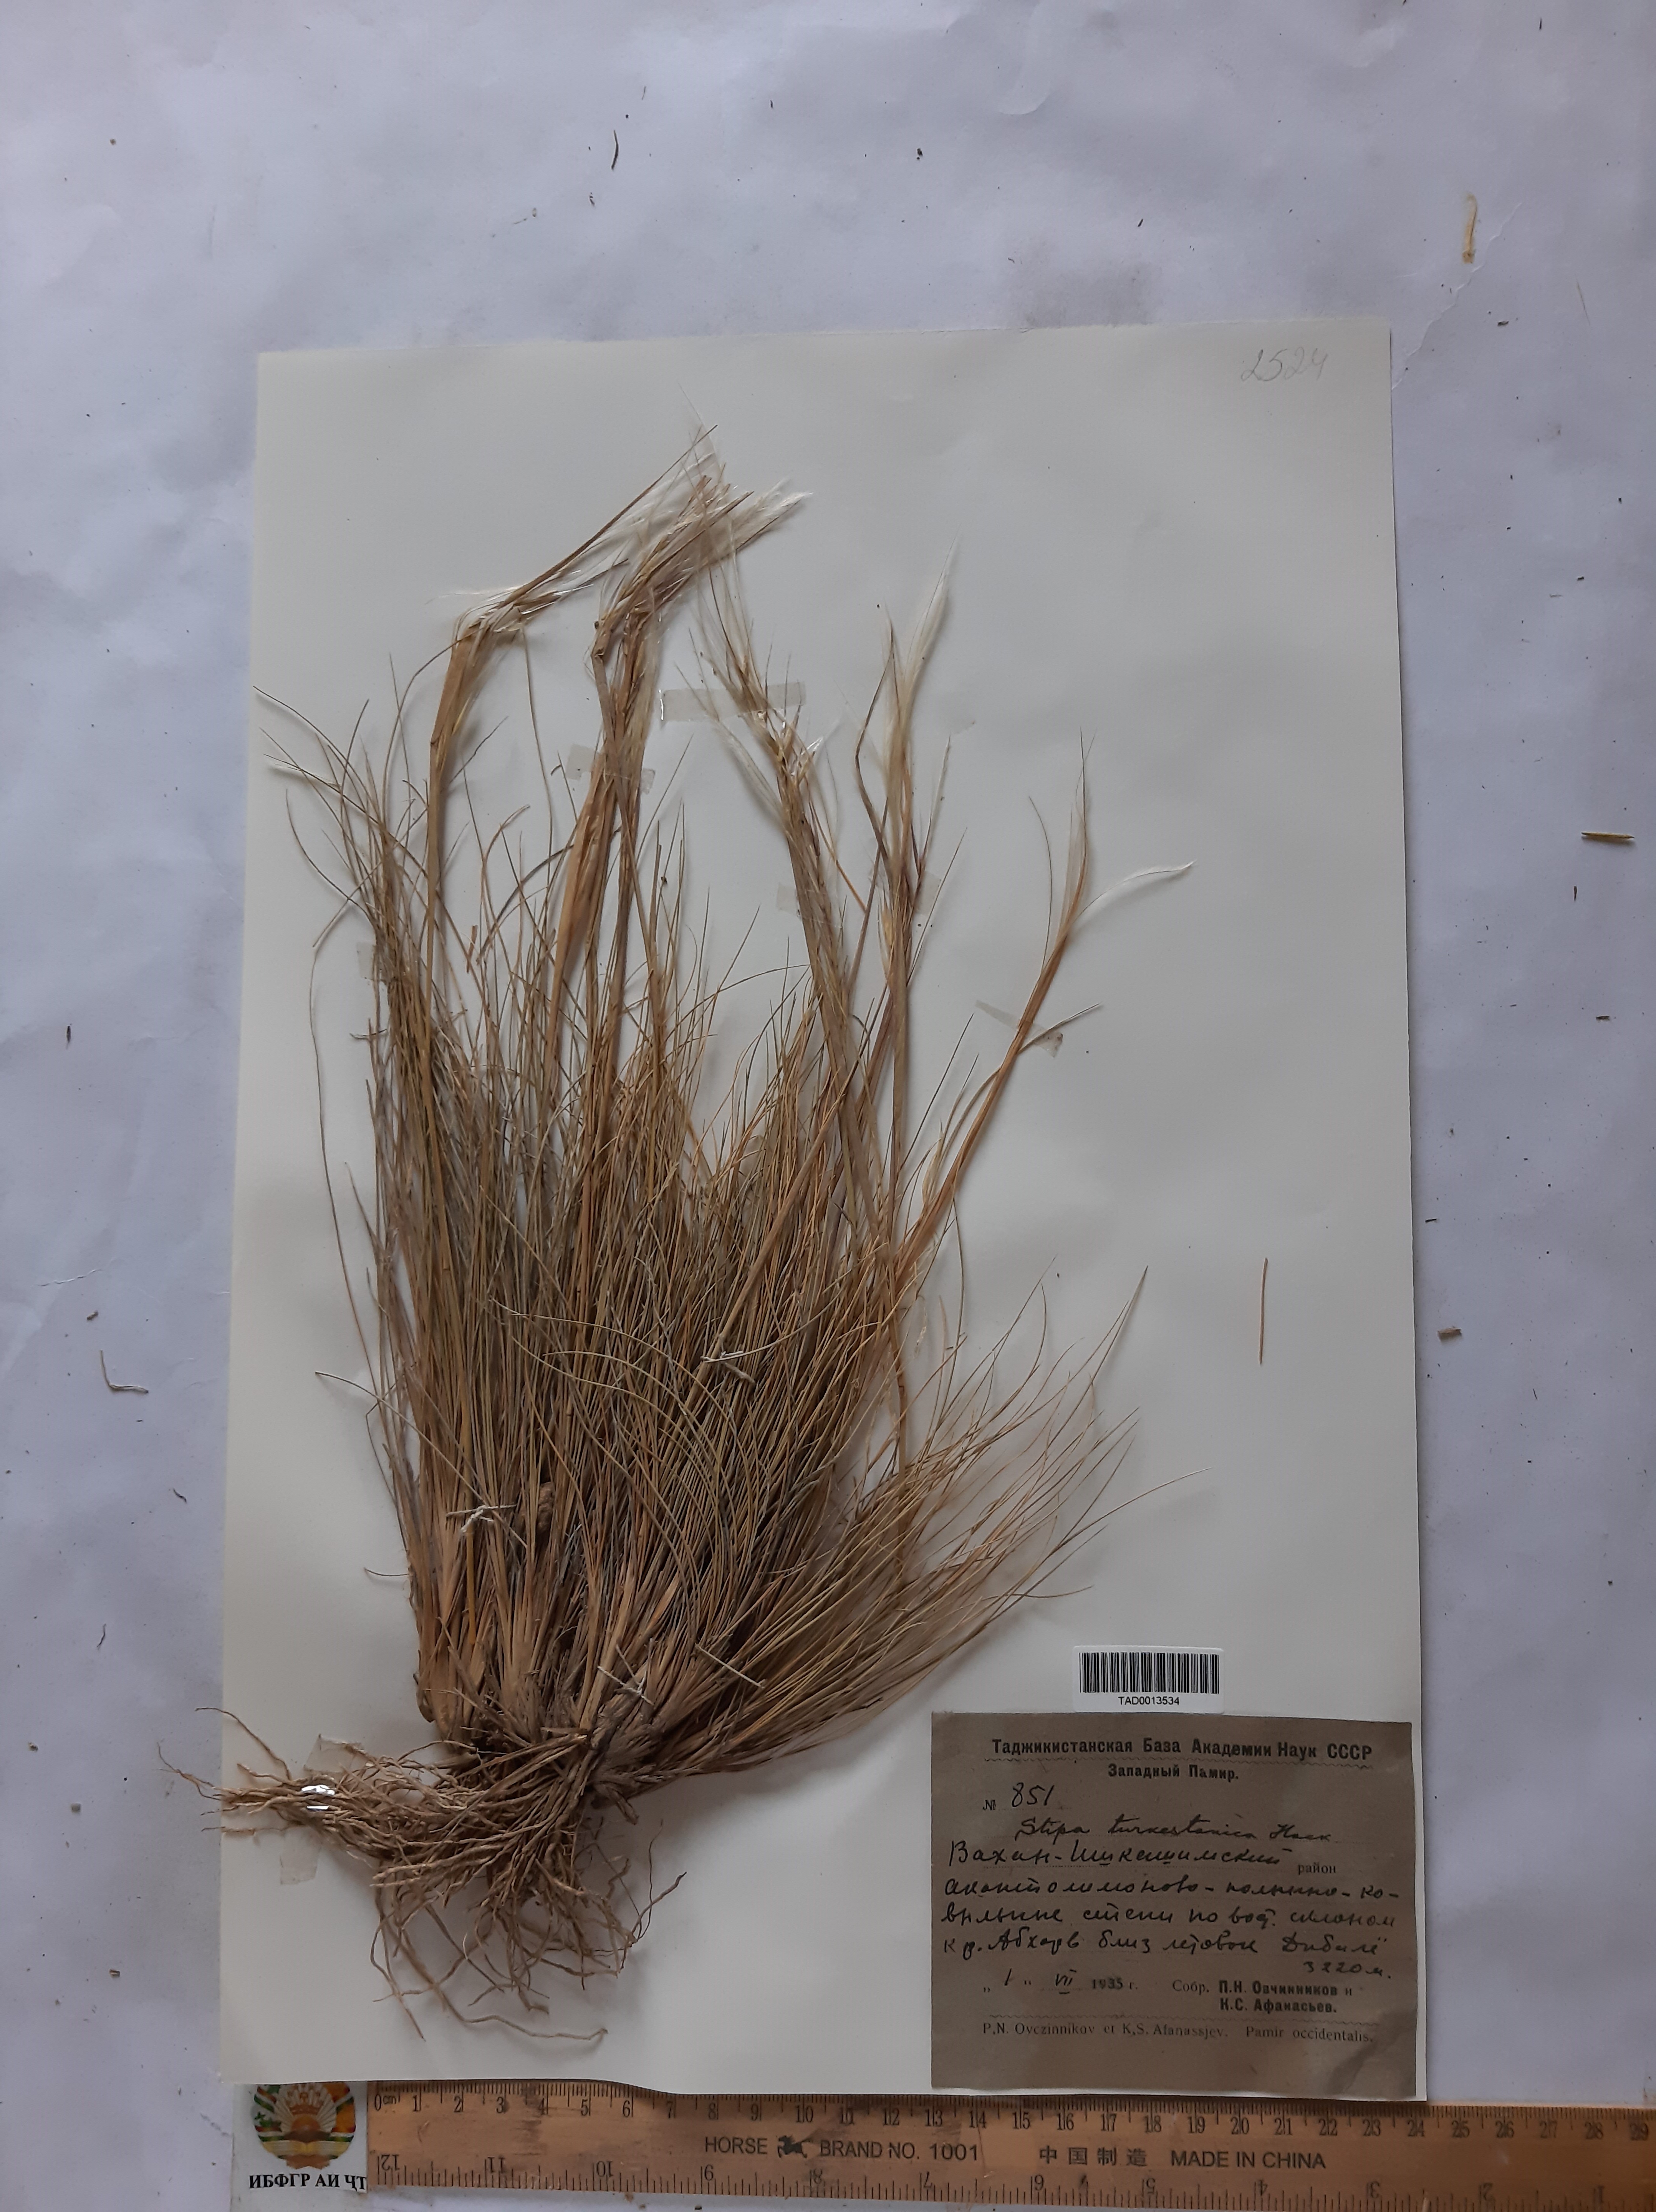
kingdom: Plantae
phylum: Tracheophyta
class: Liliopsida
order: Poales
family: Poaceae
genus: Stipa
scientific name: Stipa turkestanica
